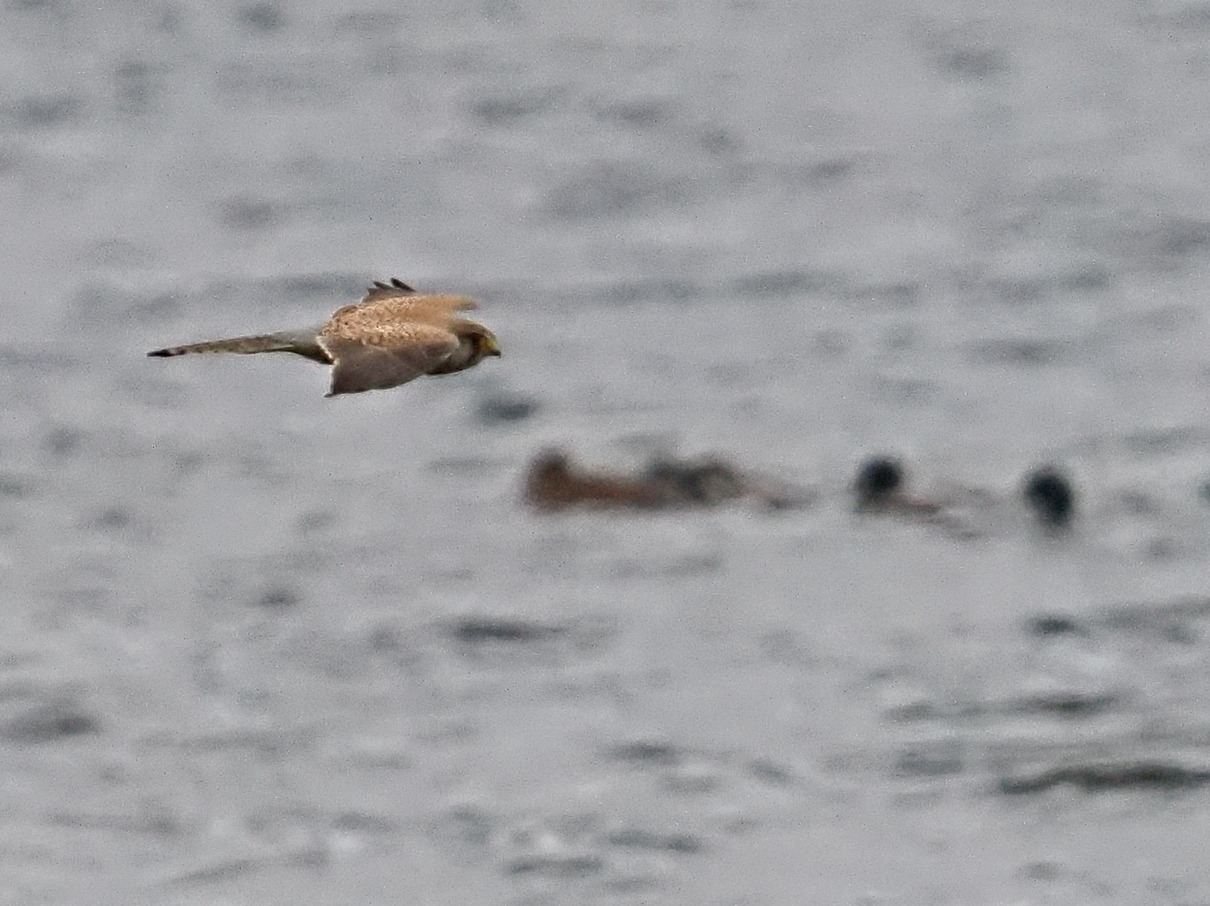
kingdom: Animalia
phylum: Chordata
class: Aves
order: Falconiformes
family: Falconidae
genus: Falco
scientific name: Falco tinnunculus
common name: Tårnfalk
